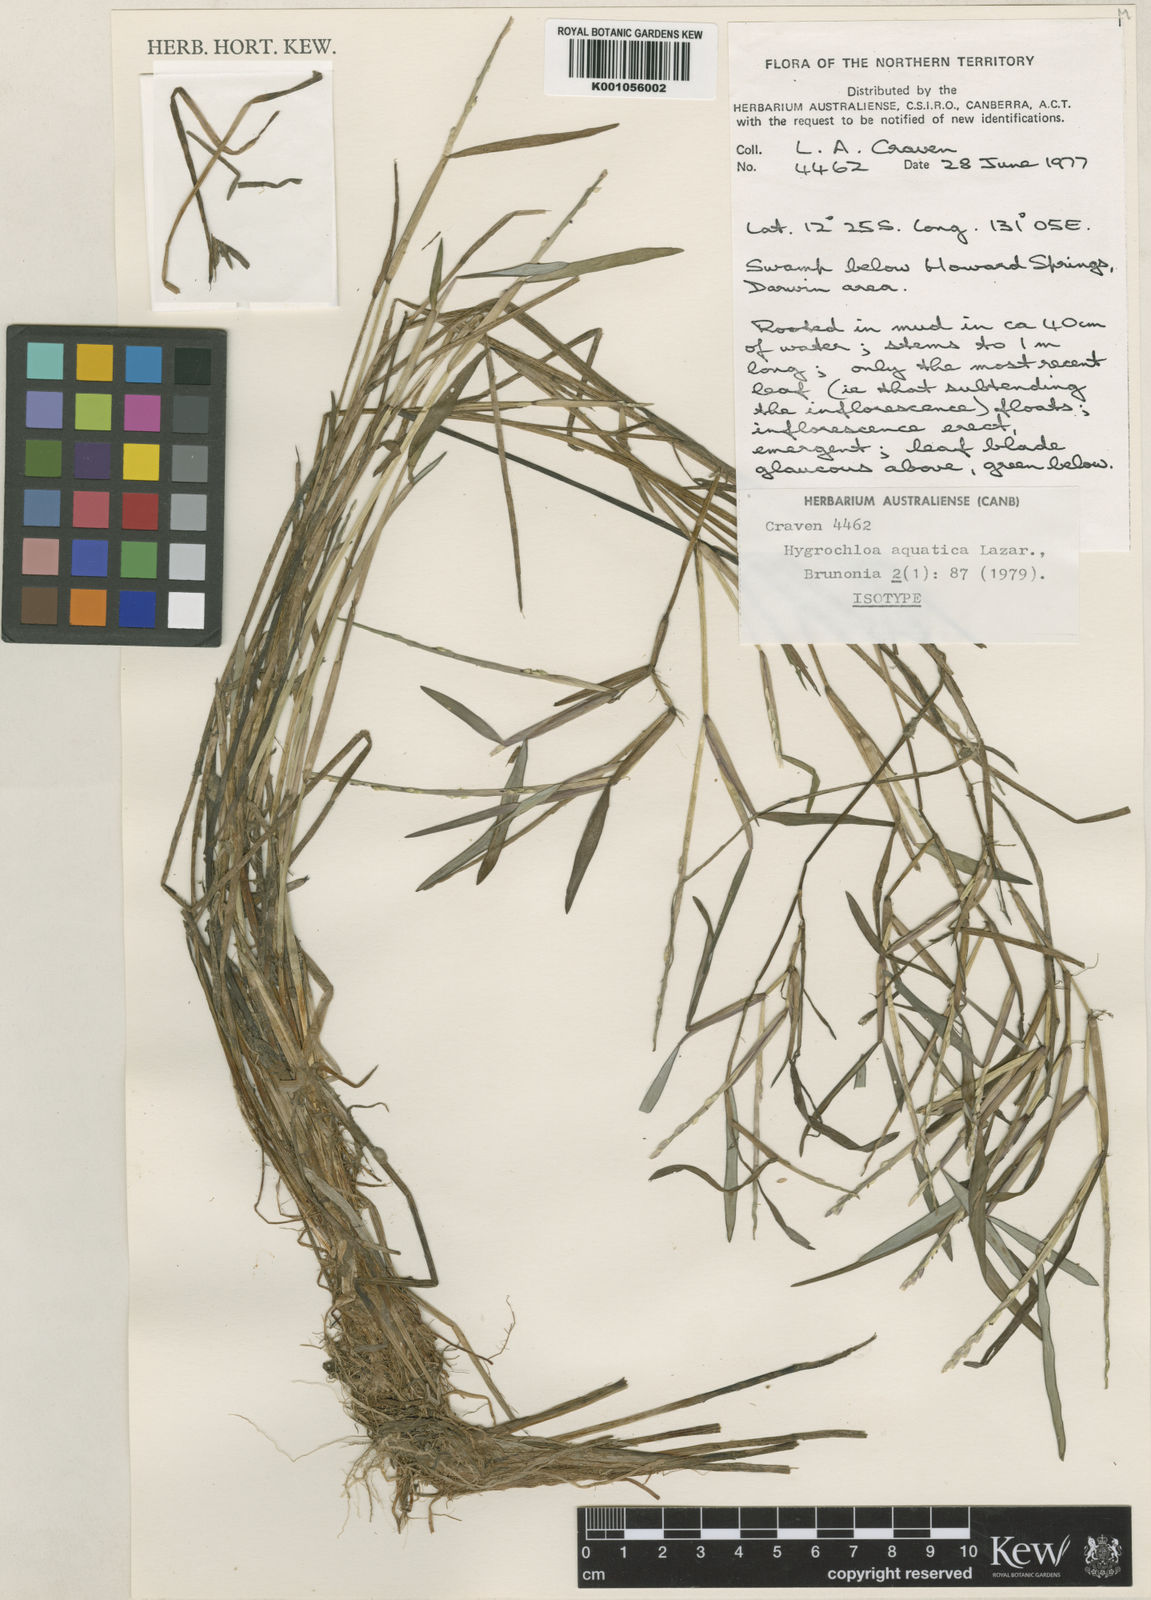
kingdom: Plantae
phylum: Tracheophyta
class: Liliopsida
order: Poales
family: Poaceae
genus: Hygrochloa
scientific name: Hygrochloa aquatica
